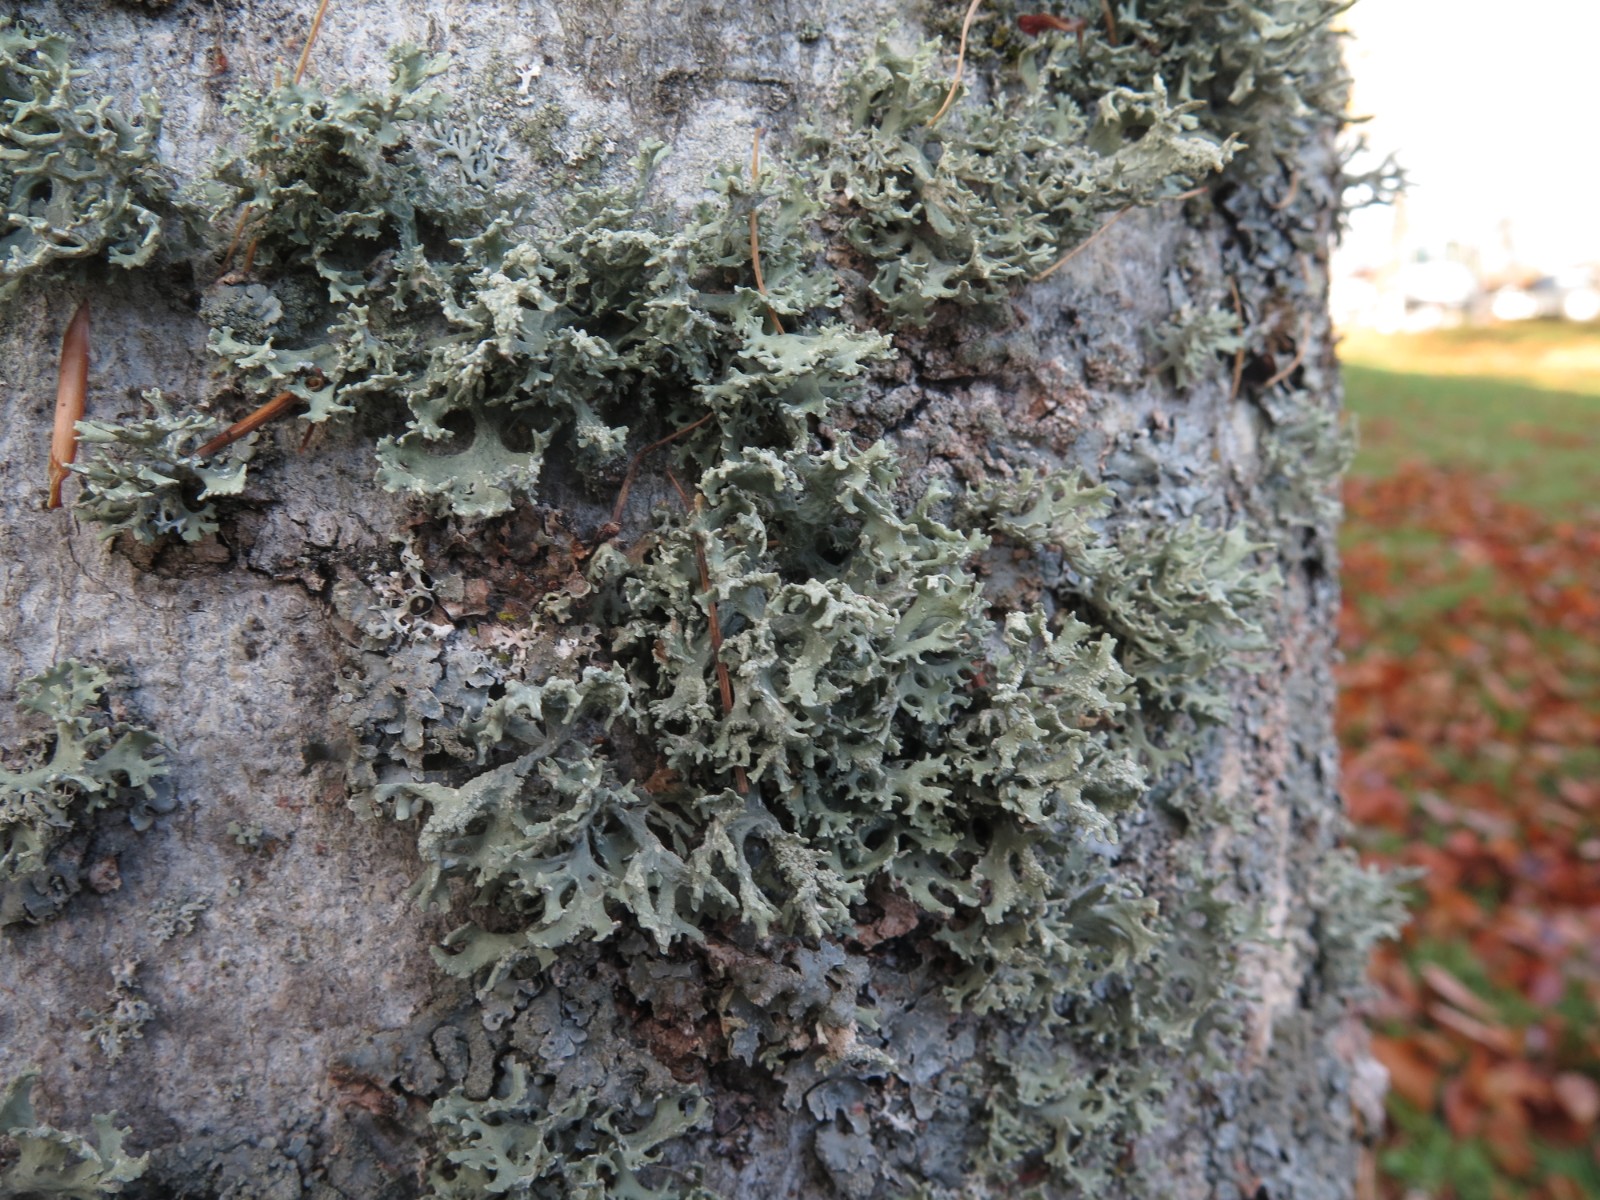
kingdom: Fungi
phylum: Ascomycota
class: Lecanoromycetes
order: Lecanorales
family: Parmeliaceae
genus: Evernia
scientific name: Evernia prunastri
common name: almindelig slåenlav
